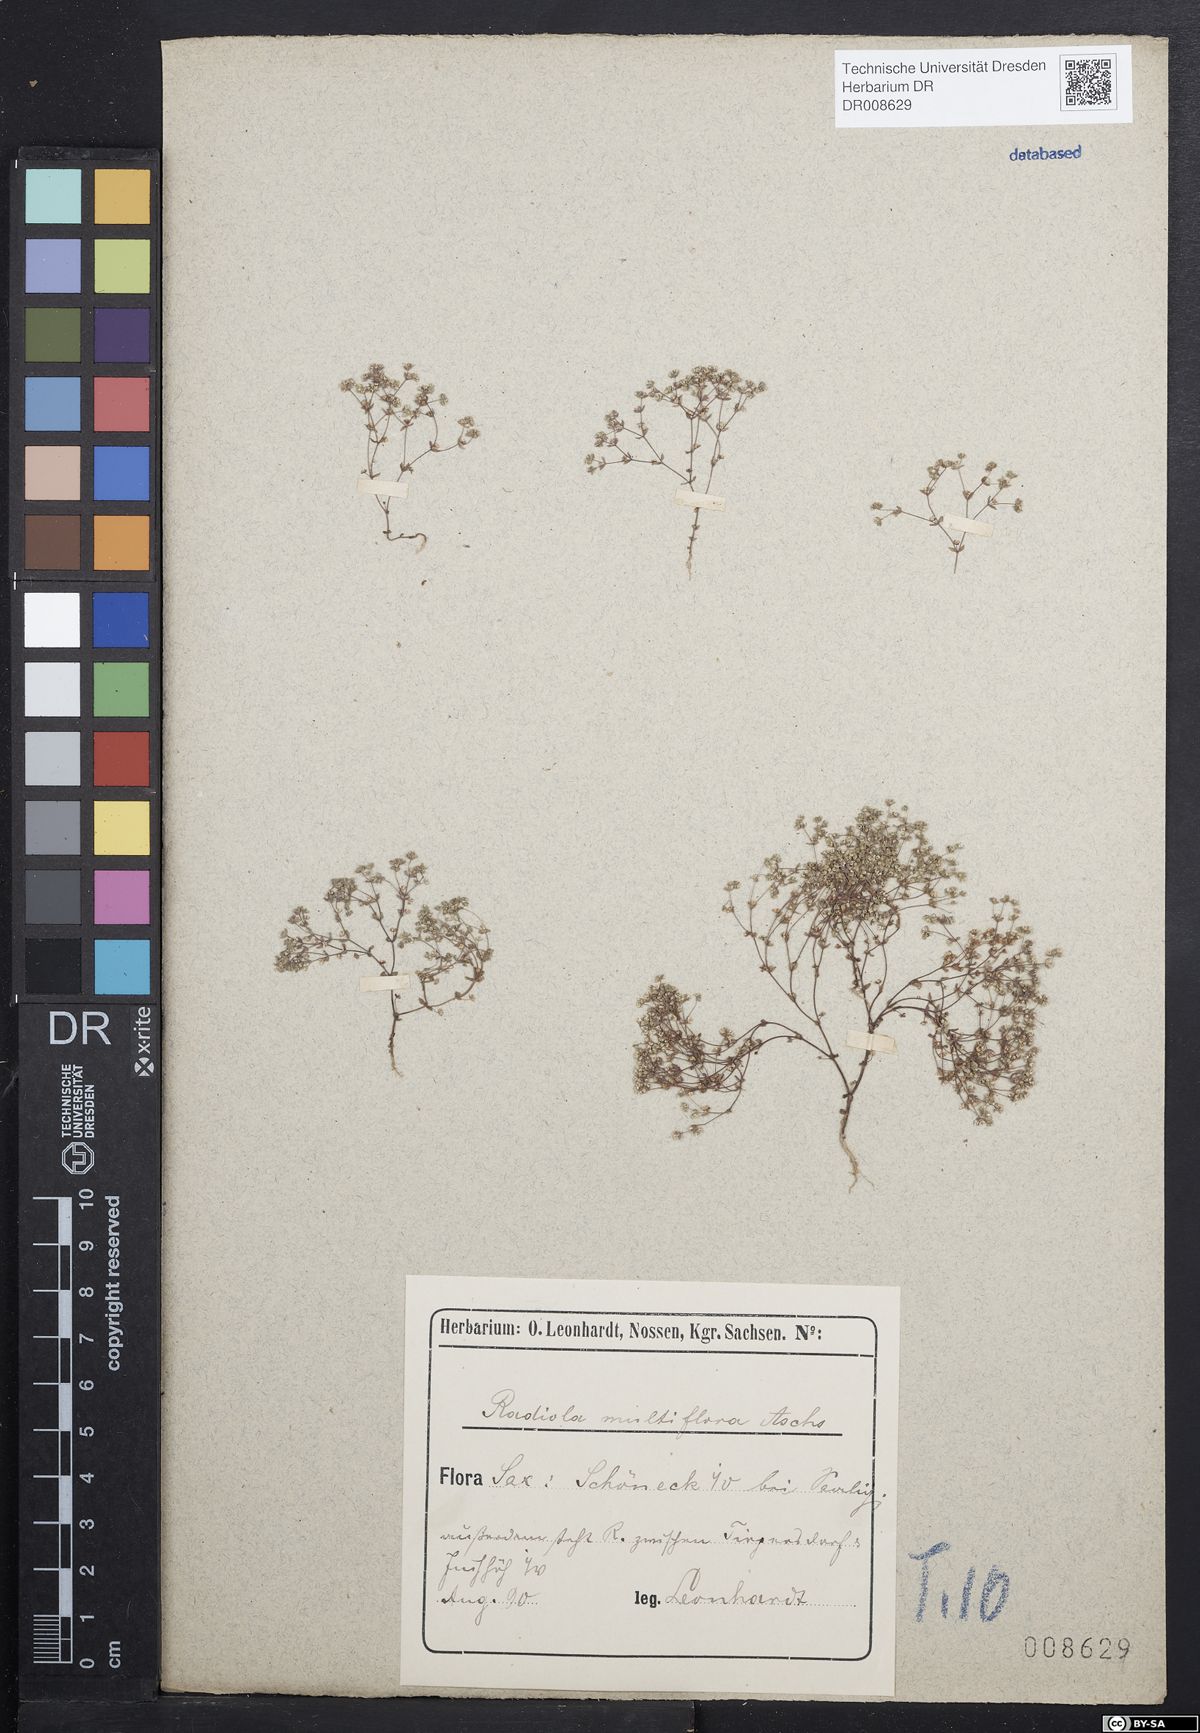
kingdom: Plantae
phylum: Tracheophyta
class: Magnoliopsida
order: Malpighiales
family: Linaceae
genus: Radiola
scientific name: Radiola linoides
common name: Allseed
